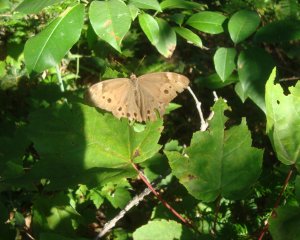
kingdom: Animalia
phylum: Arthropoda
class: Insecta
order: Lepidoptera
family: Nymphalidae
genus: Lethe
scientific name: Lethe anthedon
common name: Northern Pearly-Eye
